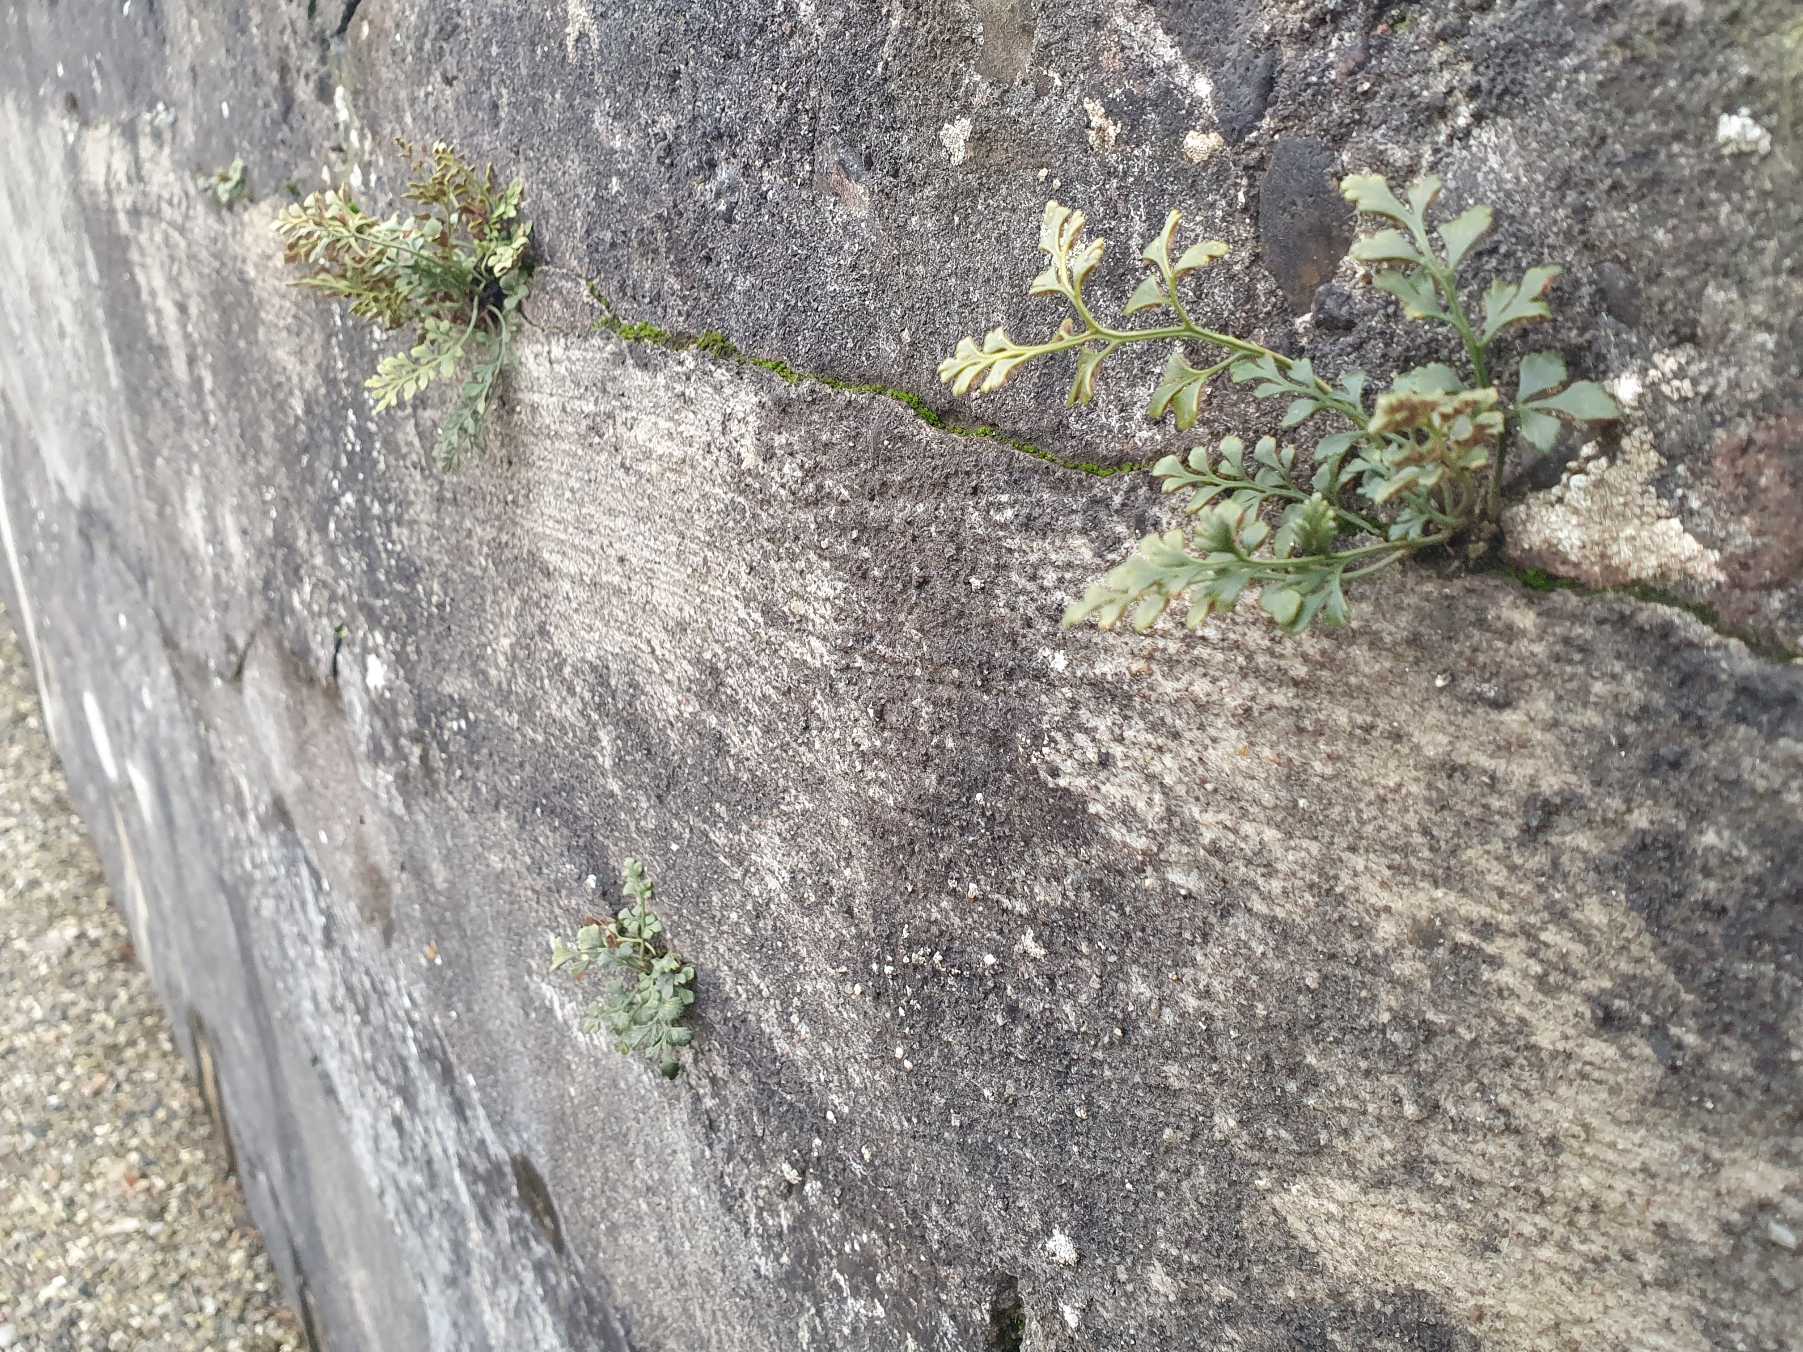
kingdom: Plantae
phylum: Tracheophyta
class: Polypodiopsida
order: Polypodiales
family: Aspleniaceae
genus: Asplenium
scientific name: Asplenium ruta-muraria
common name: Murrude
